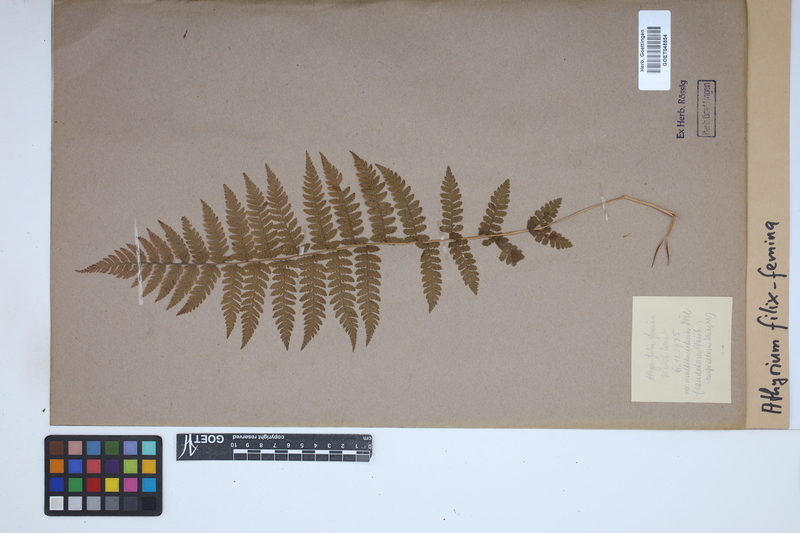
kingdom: Plantae
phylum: Tracheophyta
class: Polypodiopsida
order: Polypodiales
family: Athyriaceae
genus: Athyrium
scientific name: Athyrium filix-femina
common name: Lady fern
